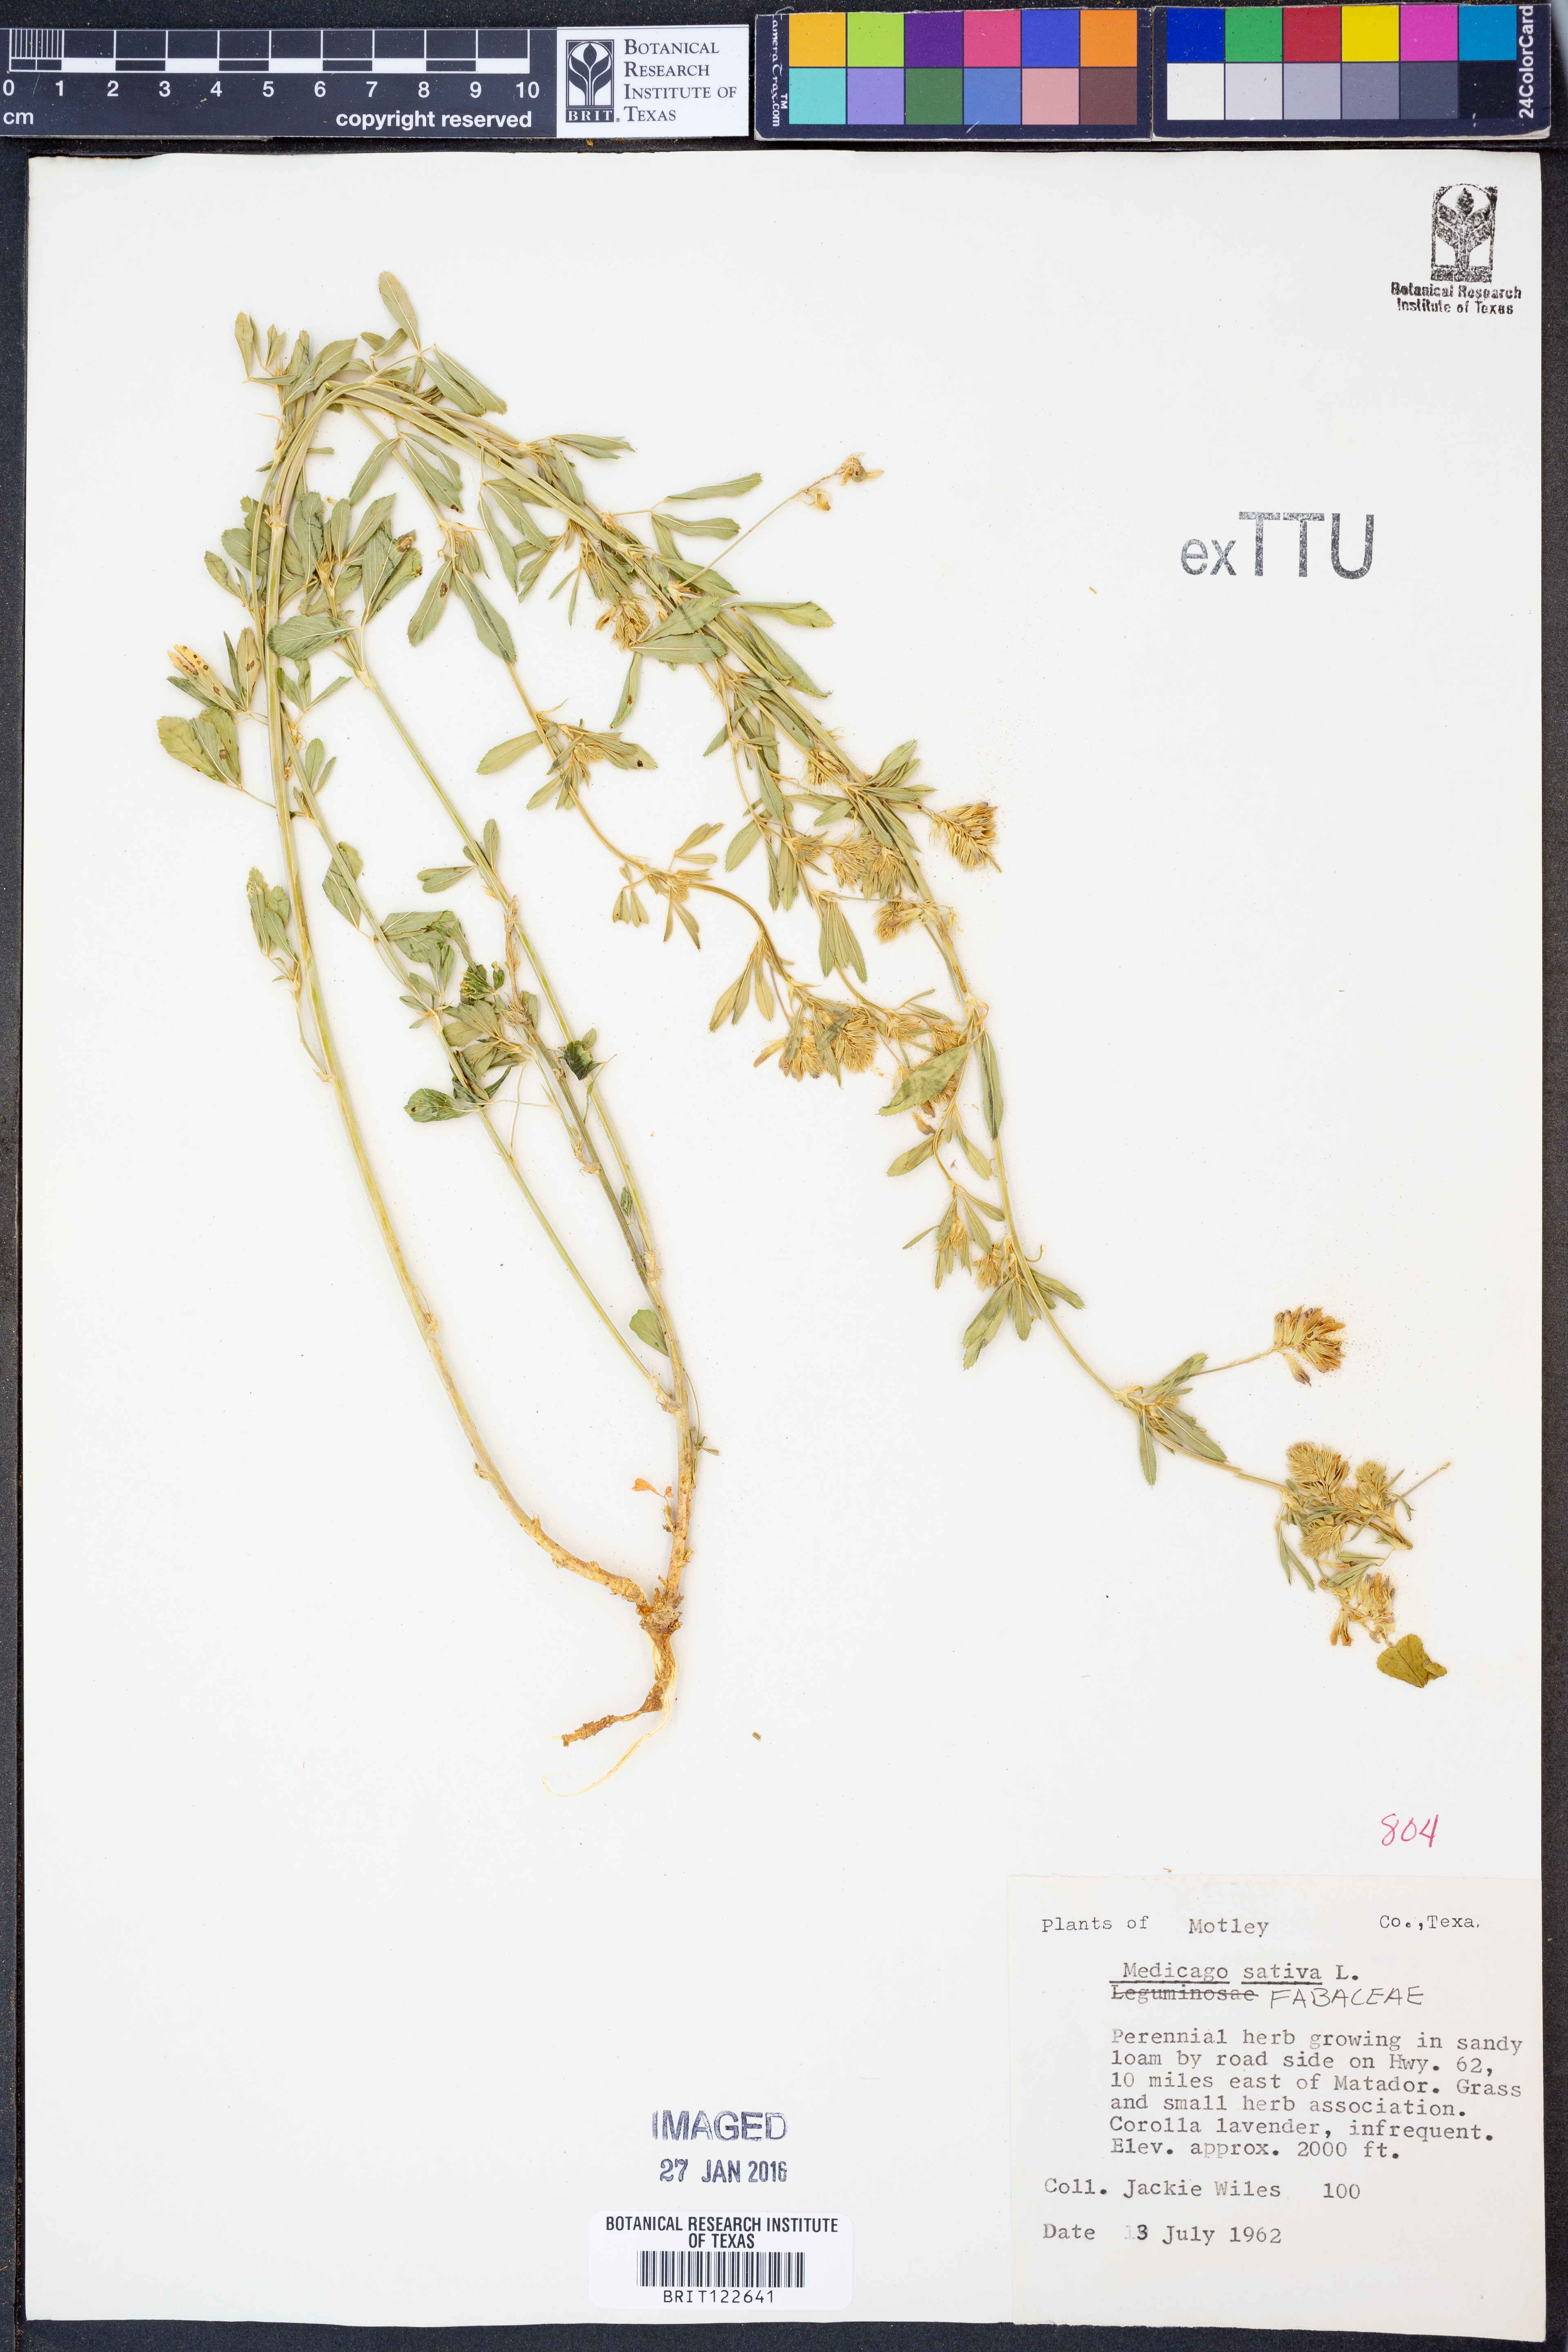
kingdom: Plantae
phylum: Tracheophyta
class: Magnoliopsida
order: Fabales
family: Fabaceae
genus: Medicago
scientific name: Medicago sativa
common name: Alfalfa
